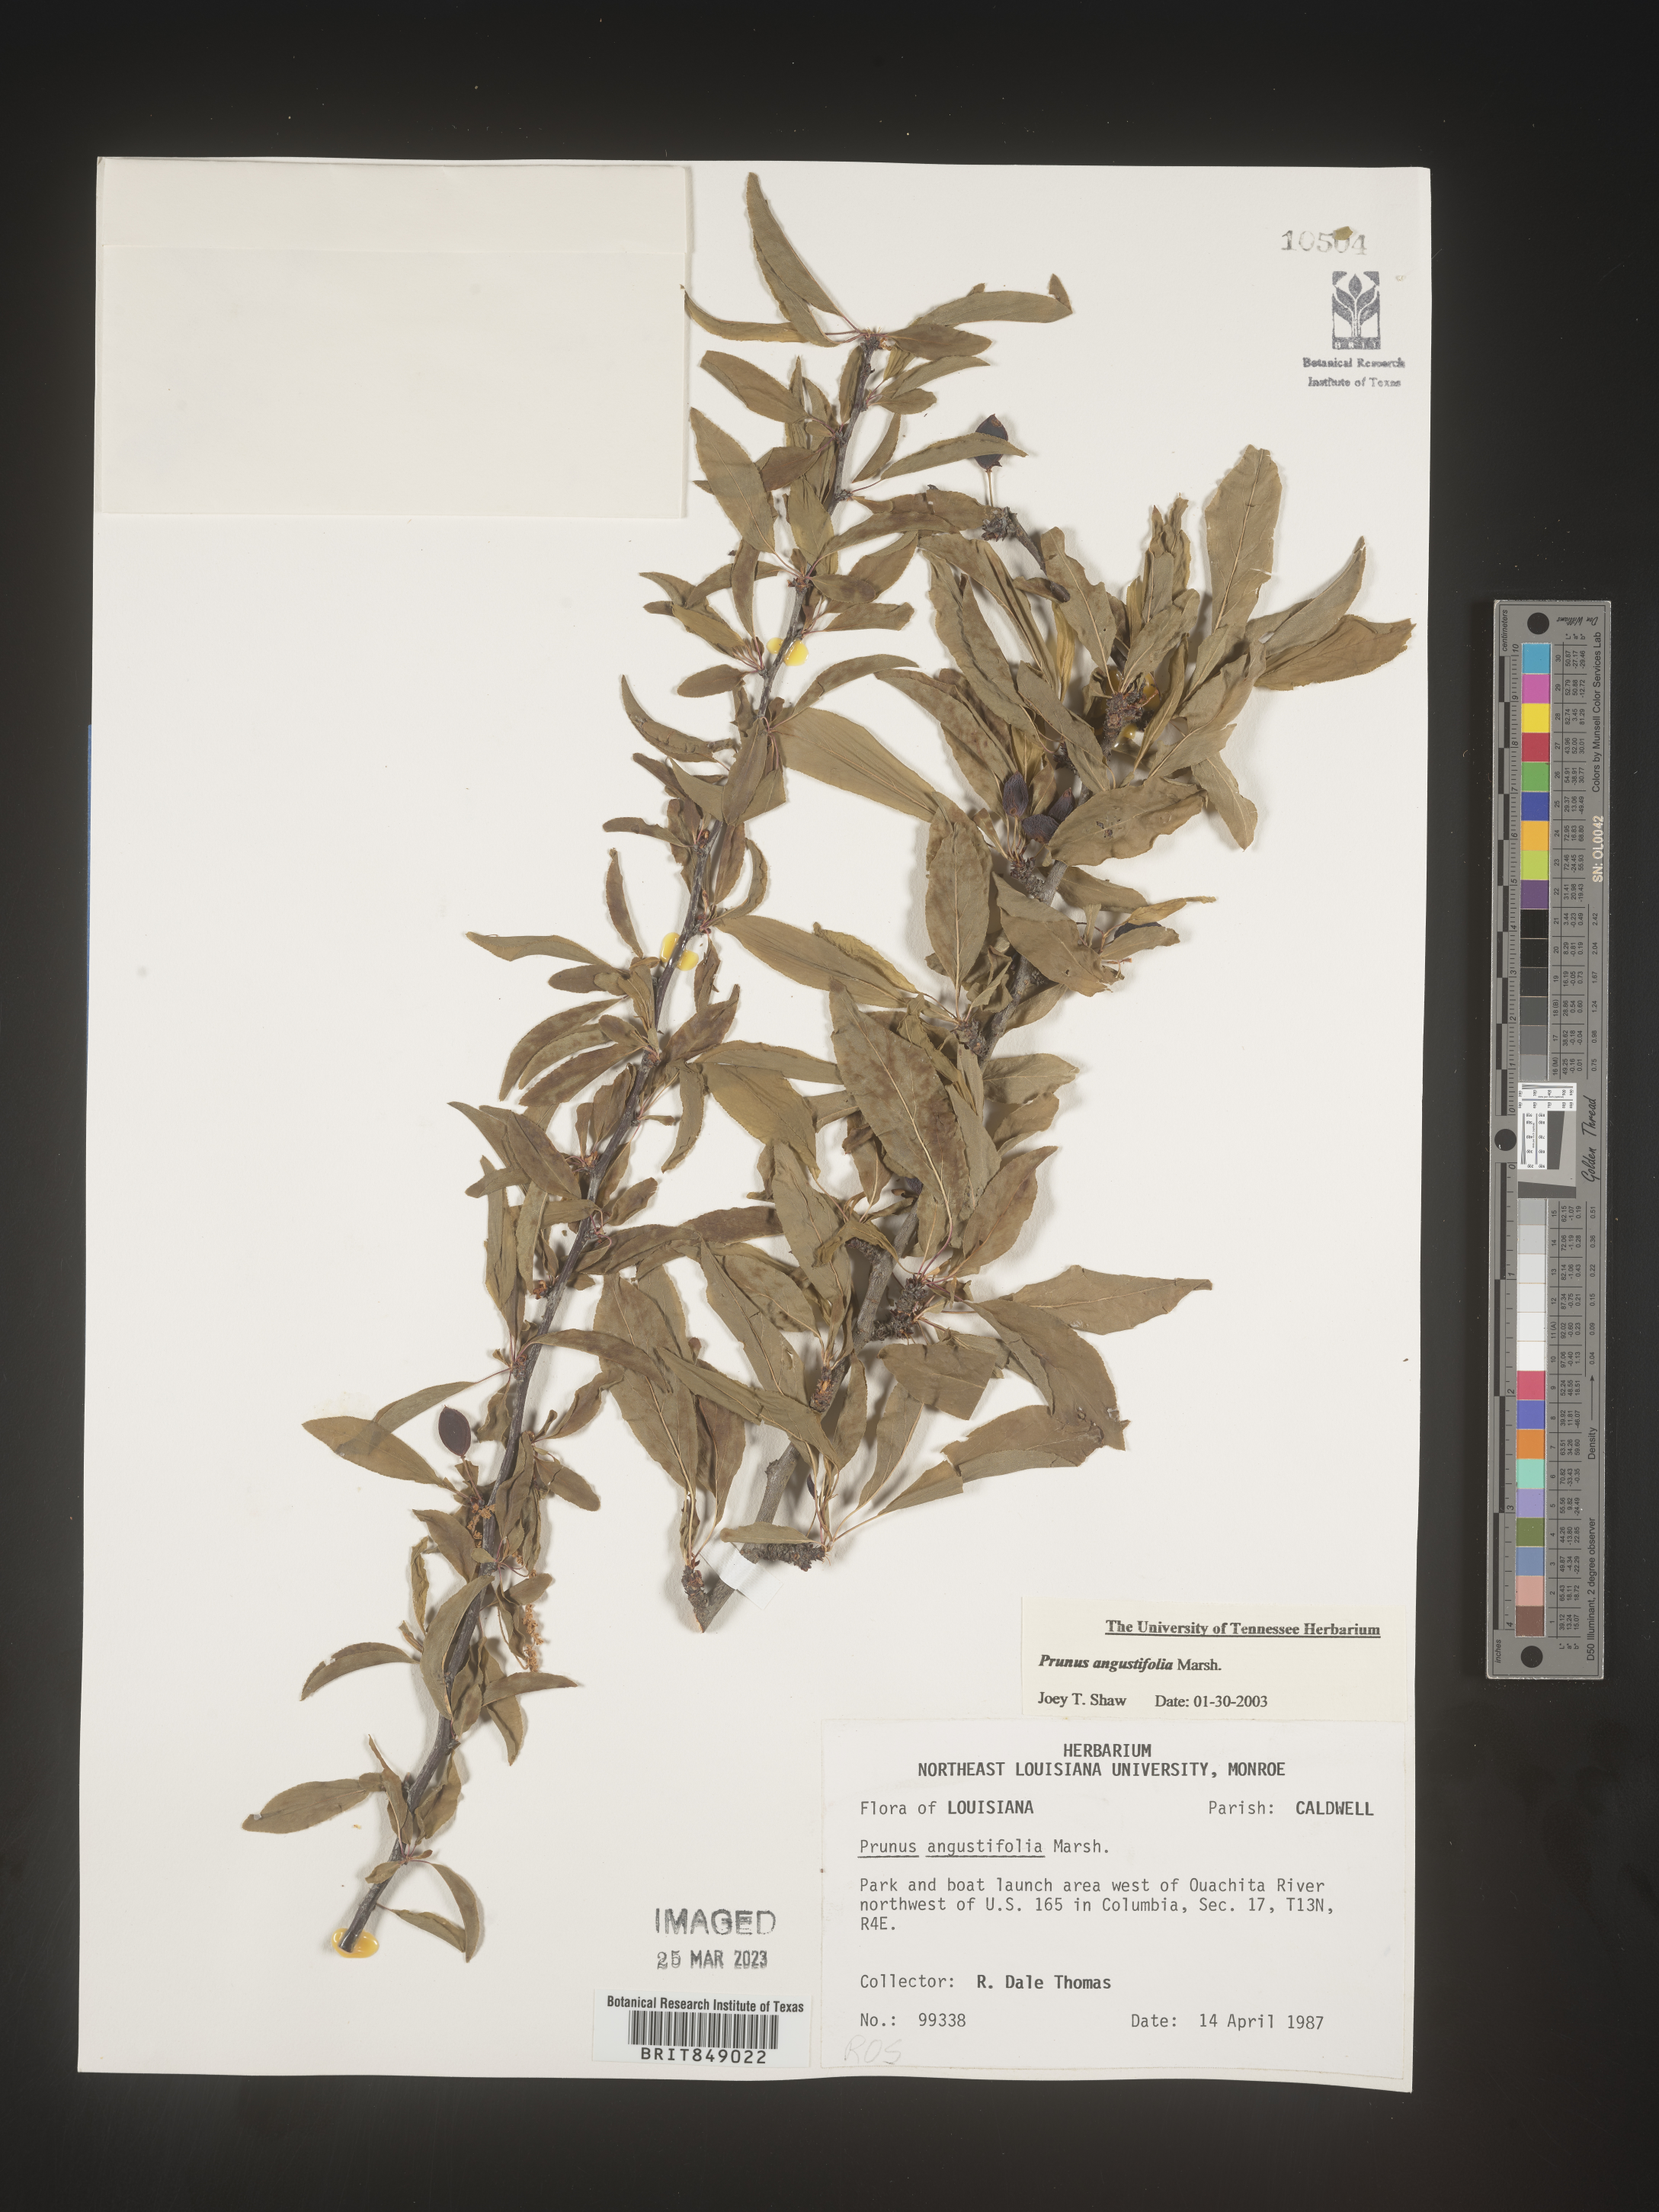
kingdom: Plantae
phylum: Tracheophyta
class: Magnoliopsida
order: Rosales
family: Rosaceae
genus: Prunus
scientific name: Prunus angustifolia
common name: Cherokee plum
